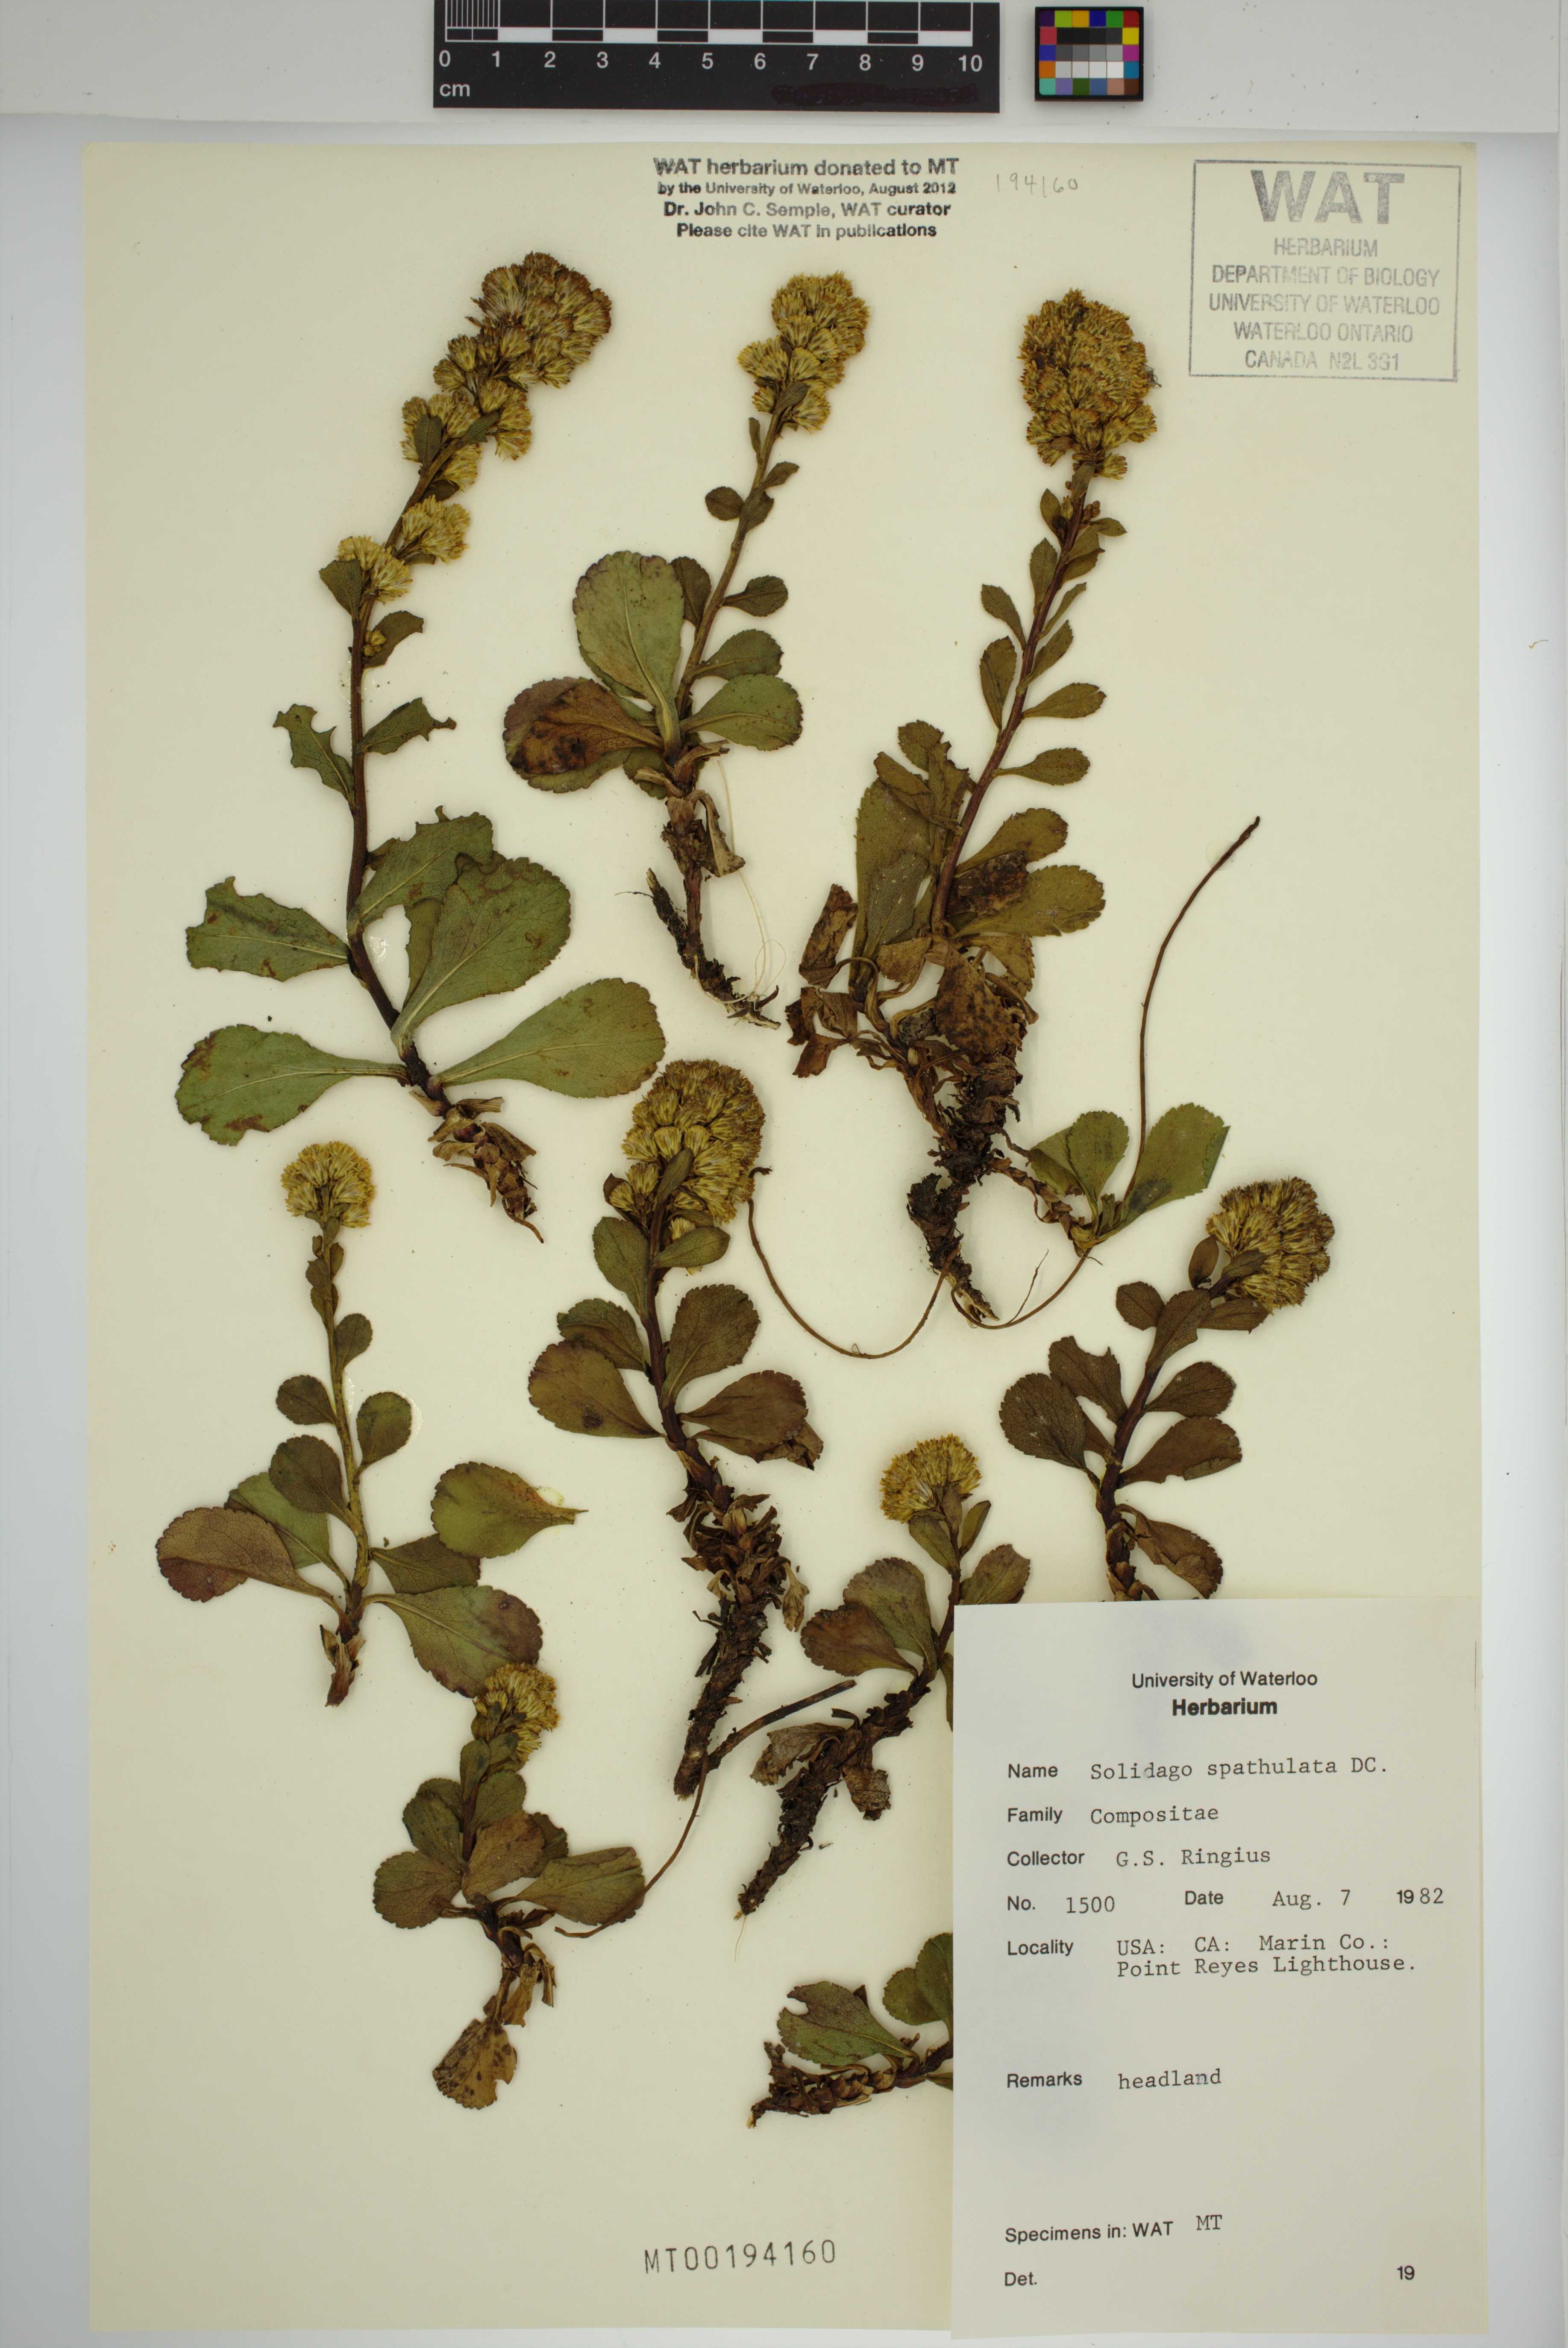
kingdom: Plantae
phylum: Tracheophyta
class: Magnoliopsida
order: Asterales
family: Asteraceae
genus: Solidago
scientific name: Solidago spathulata
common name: Coast goldenrod
